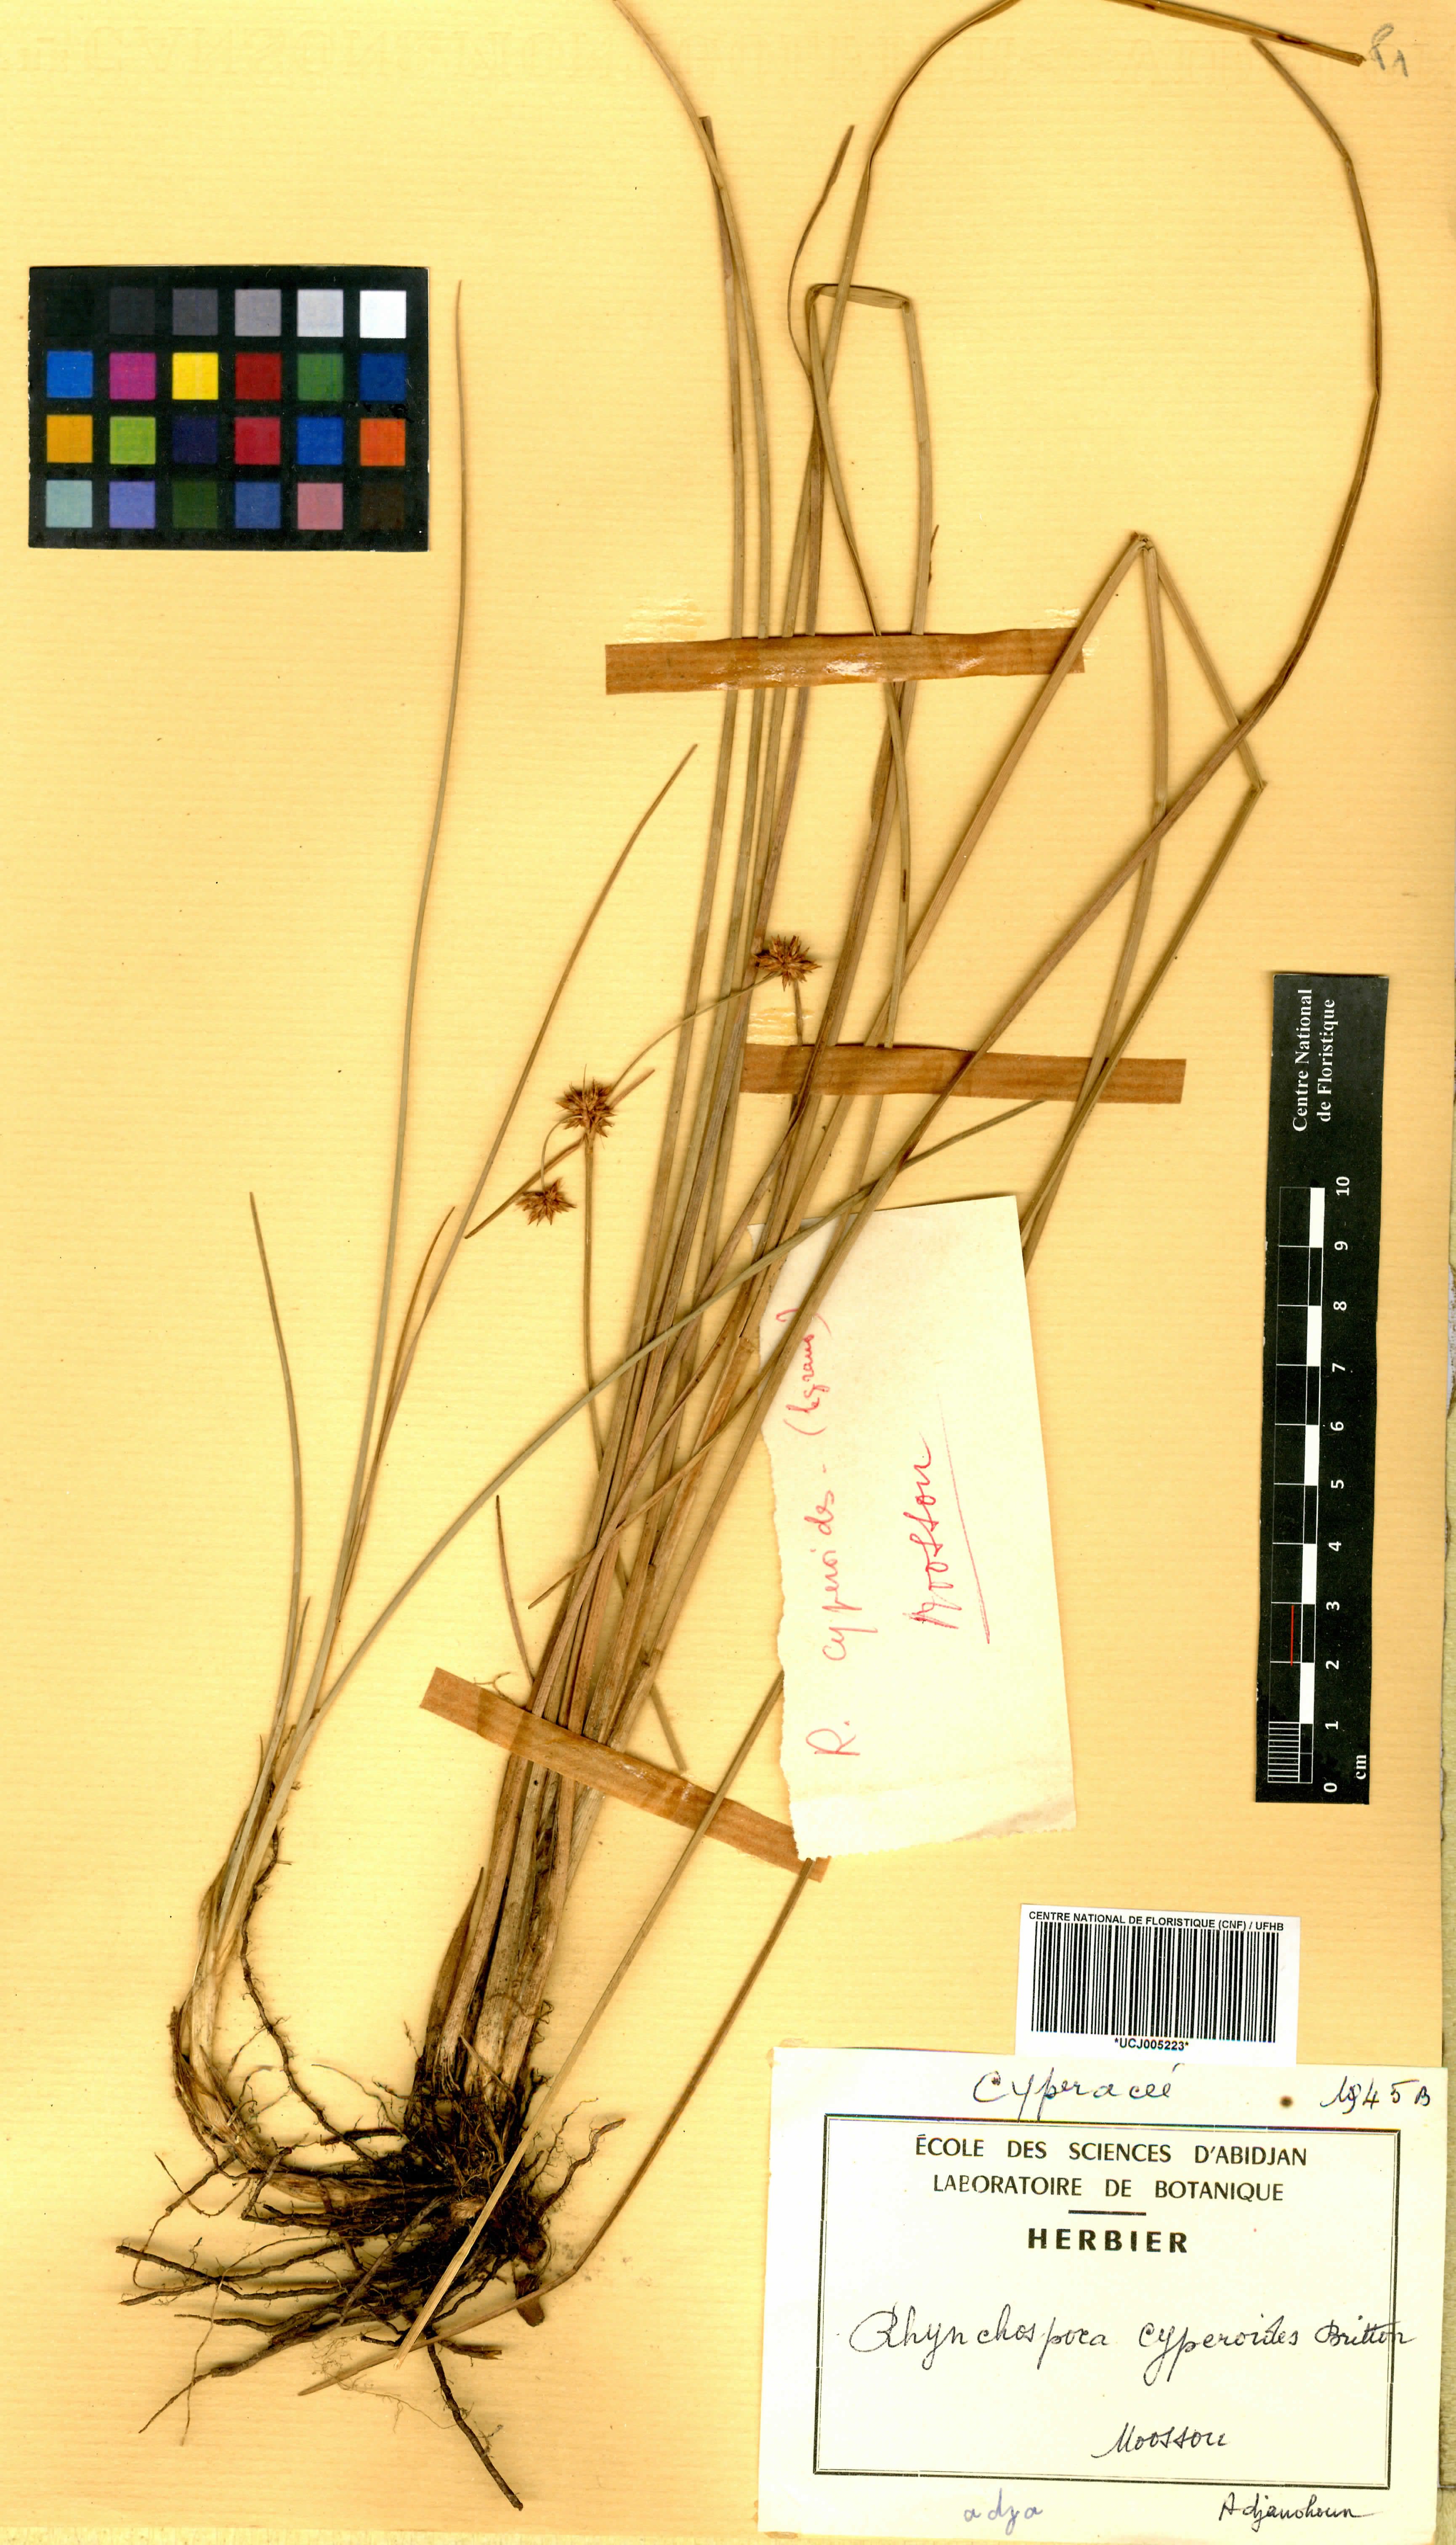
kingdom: Plantae
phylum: Tracheophyta
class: Liliopsida
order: Poales
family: Cyperaceae
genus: Rhynchospora
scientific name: Rhynchospora holoschoenoides
